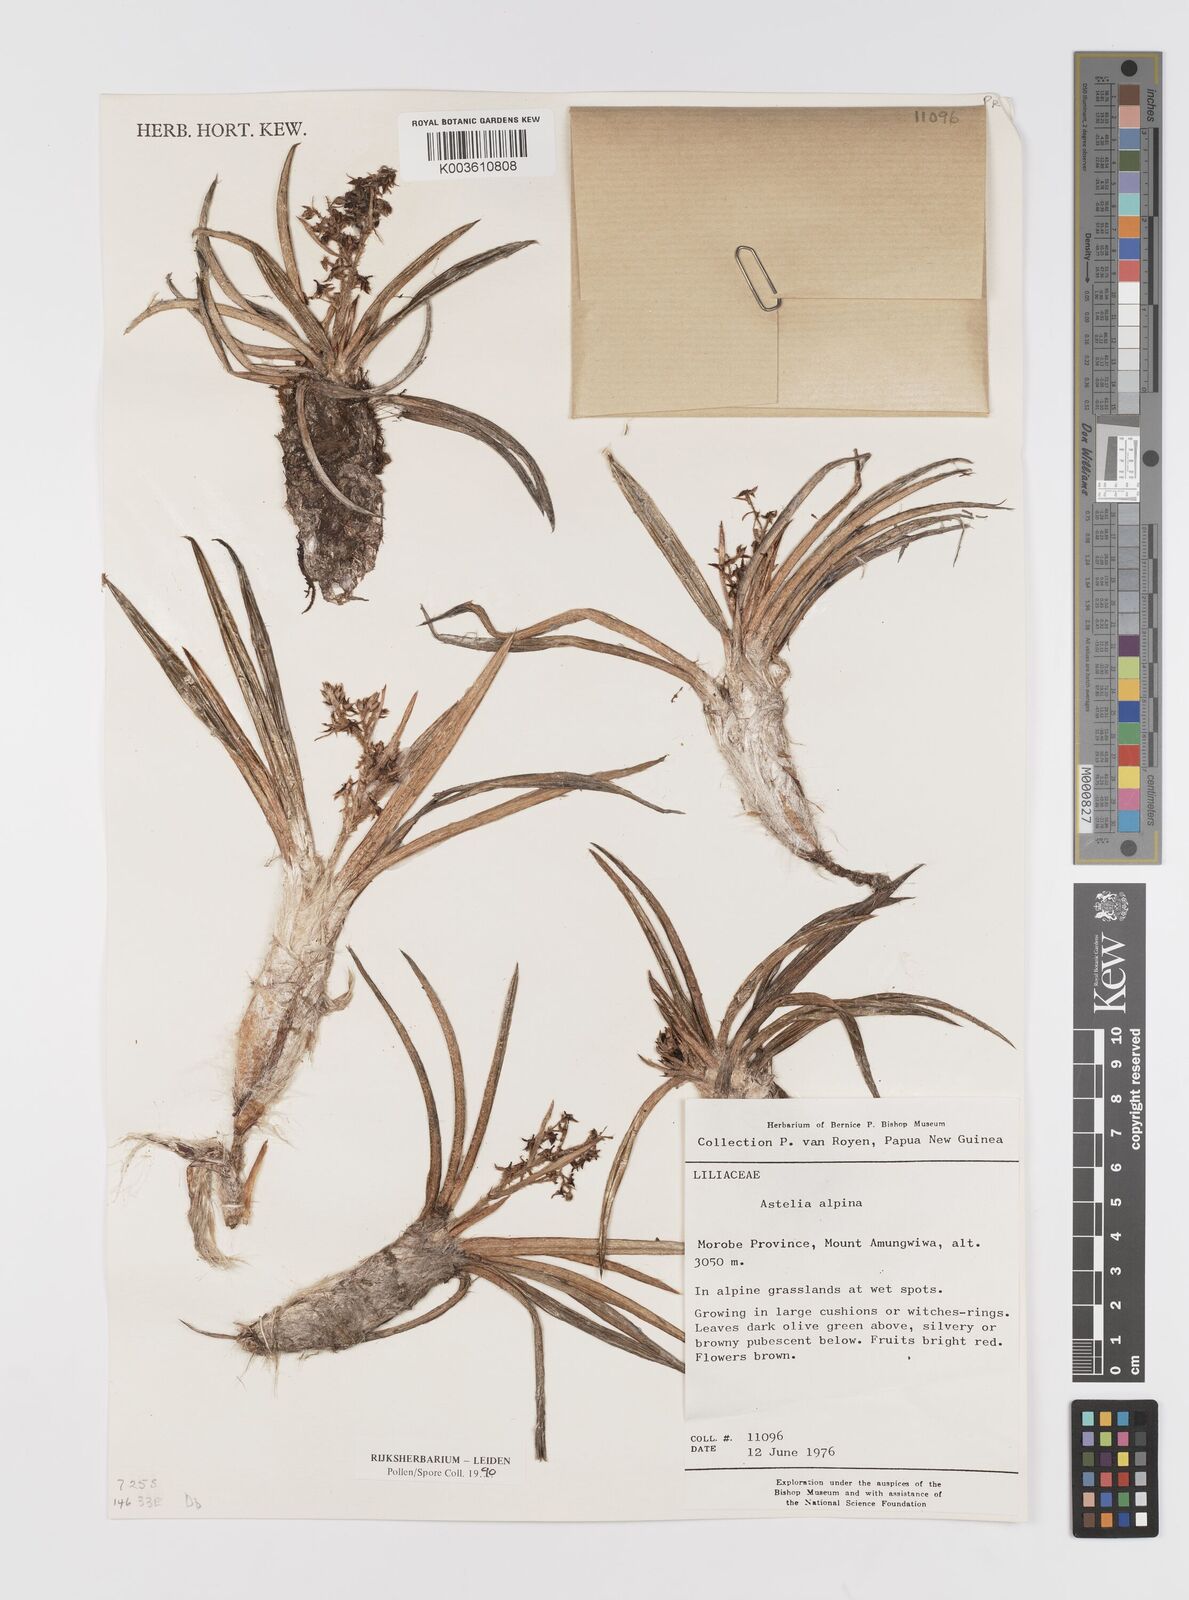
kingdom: Plantae
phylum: Tracheophyta
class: Liliopsida
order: Asparagales
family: Asteliaceae
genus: Astelia
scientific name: Astelia papuana
